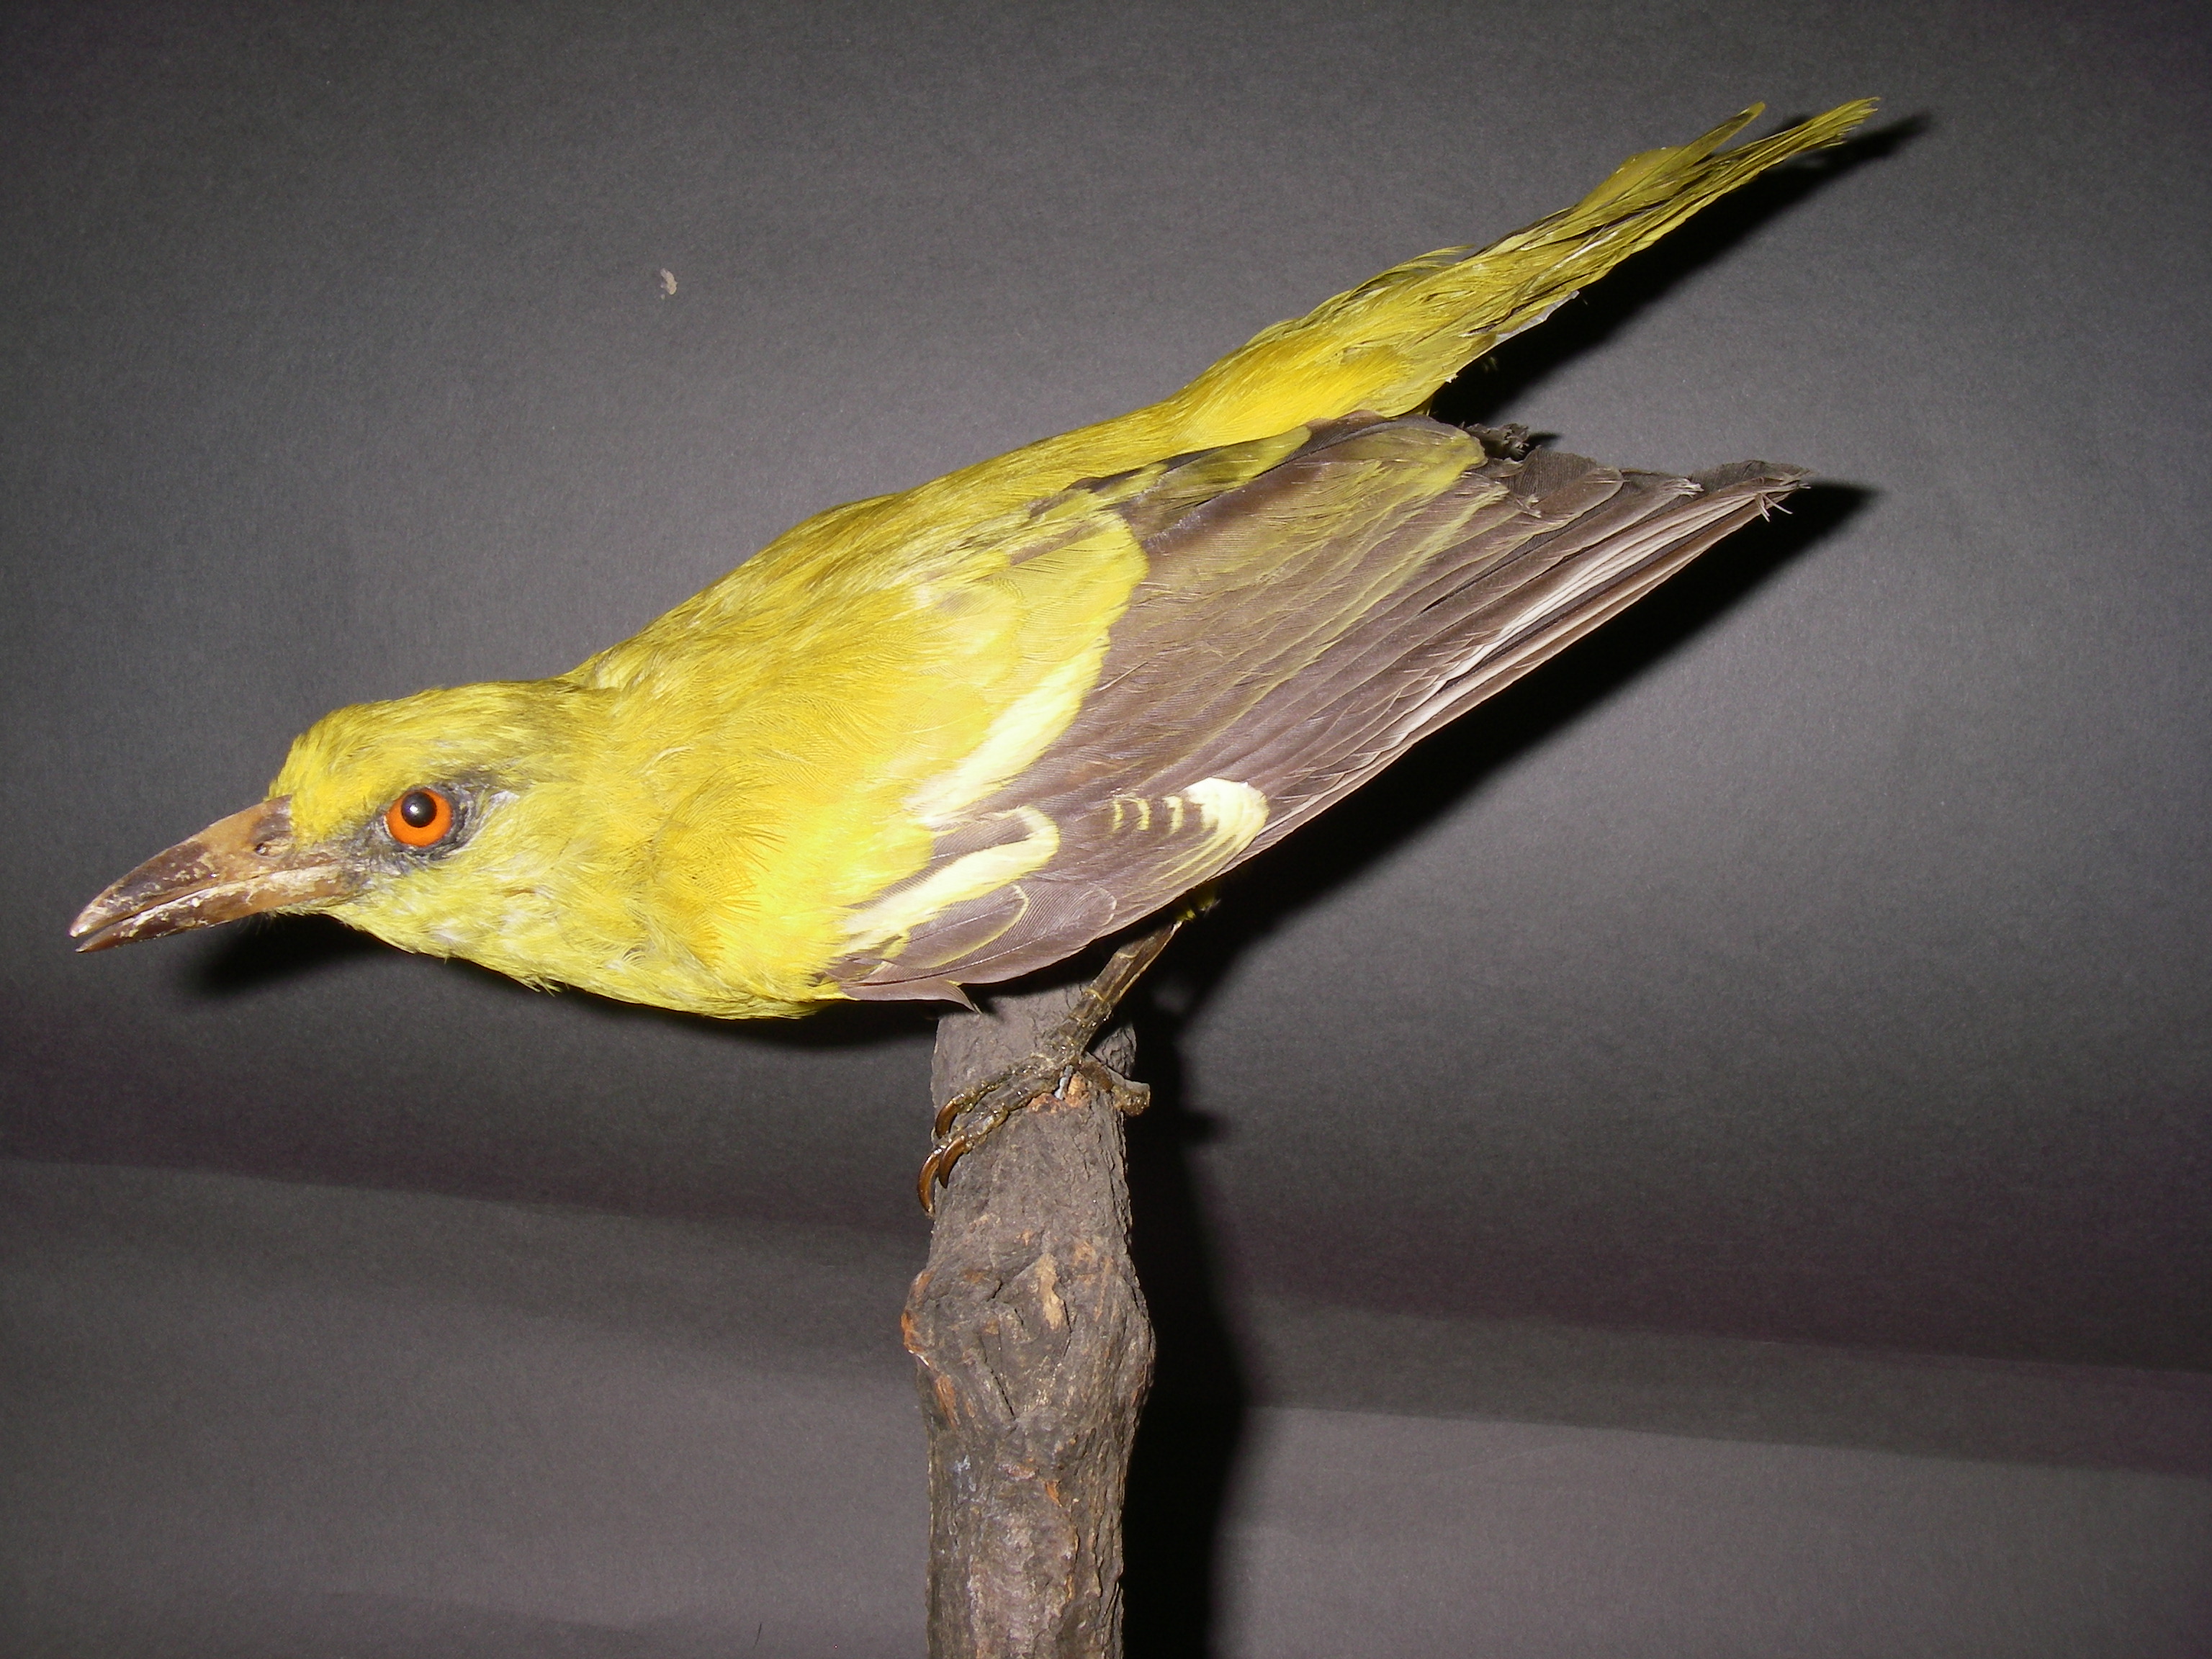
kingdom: Animalia
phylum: Chordata
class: Aves
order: Passeriformes
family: Oriolidae
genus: Oriolus
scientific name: Oriolus auratus
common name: African golden oriole
